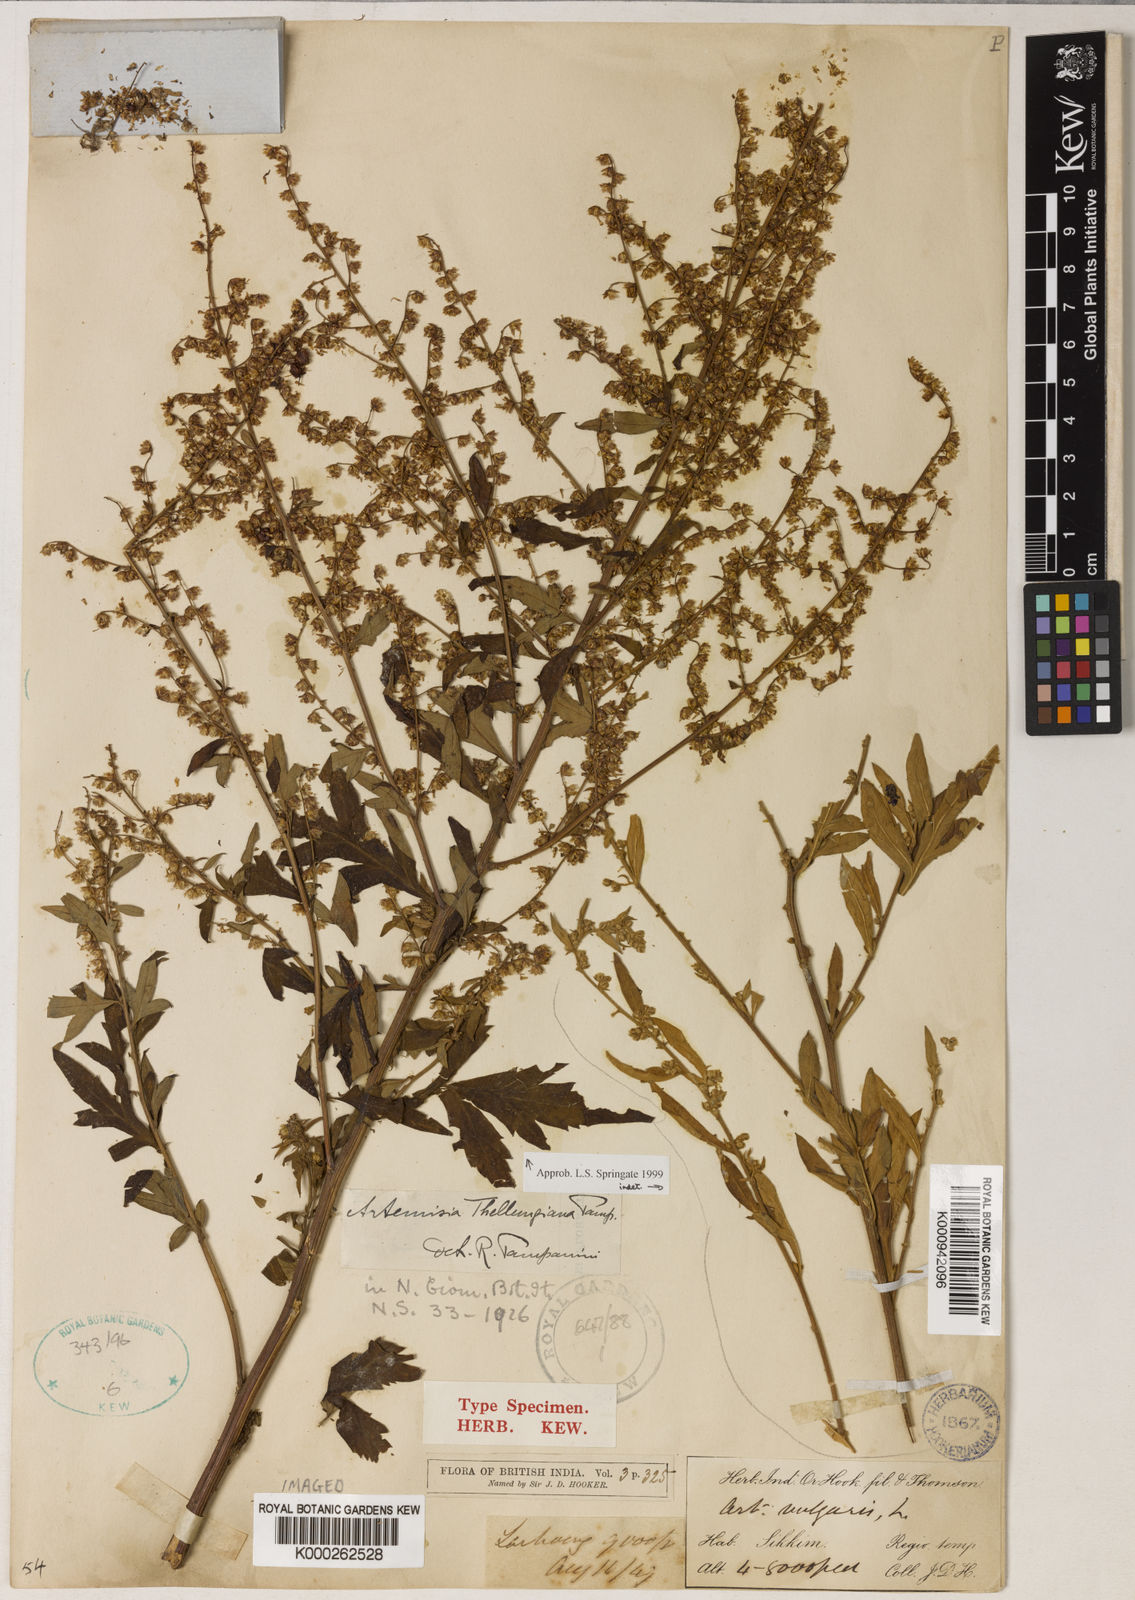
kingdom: Plantae
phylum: Tracheophyta
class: Magnoliopsida
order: Asterales
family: Asteraceae
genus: Artemisia
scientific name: Artemisia thellungiana
